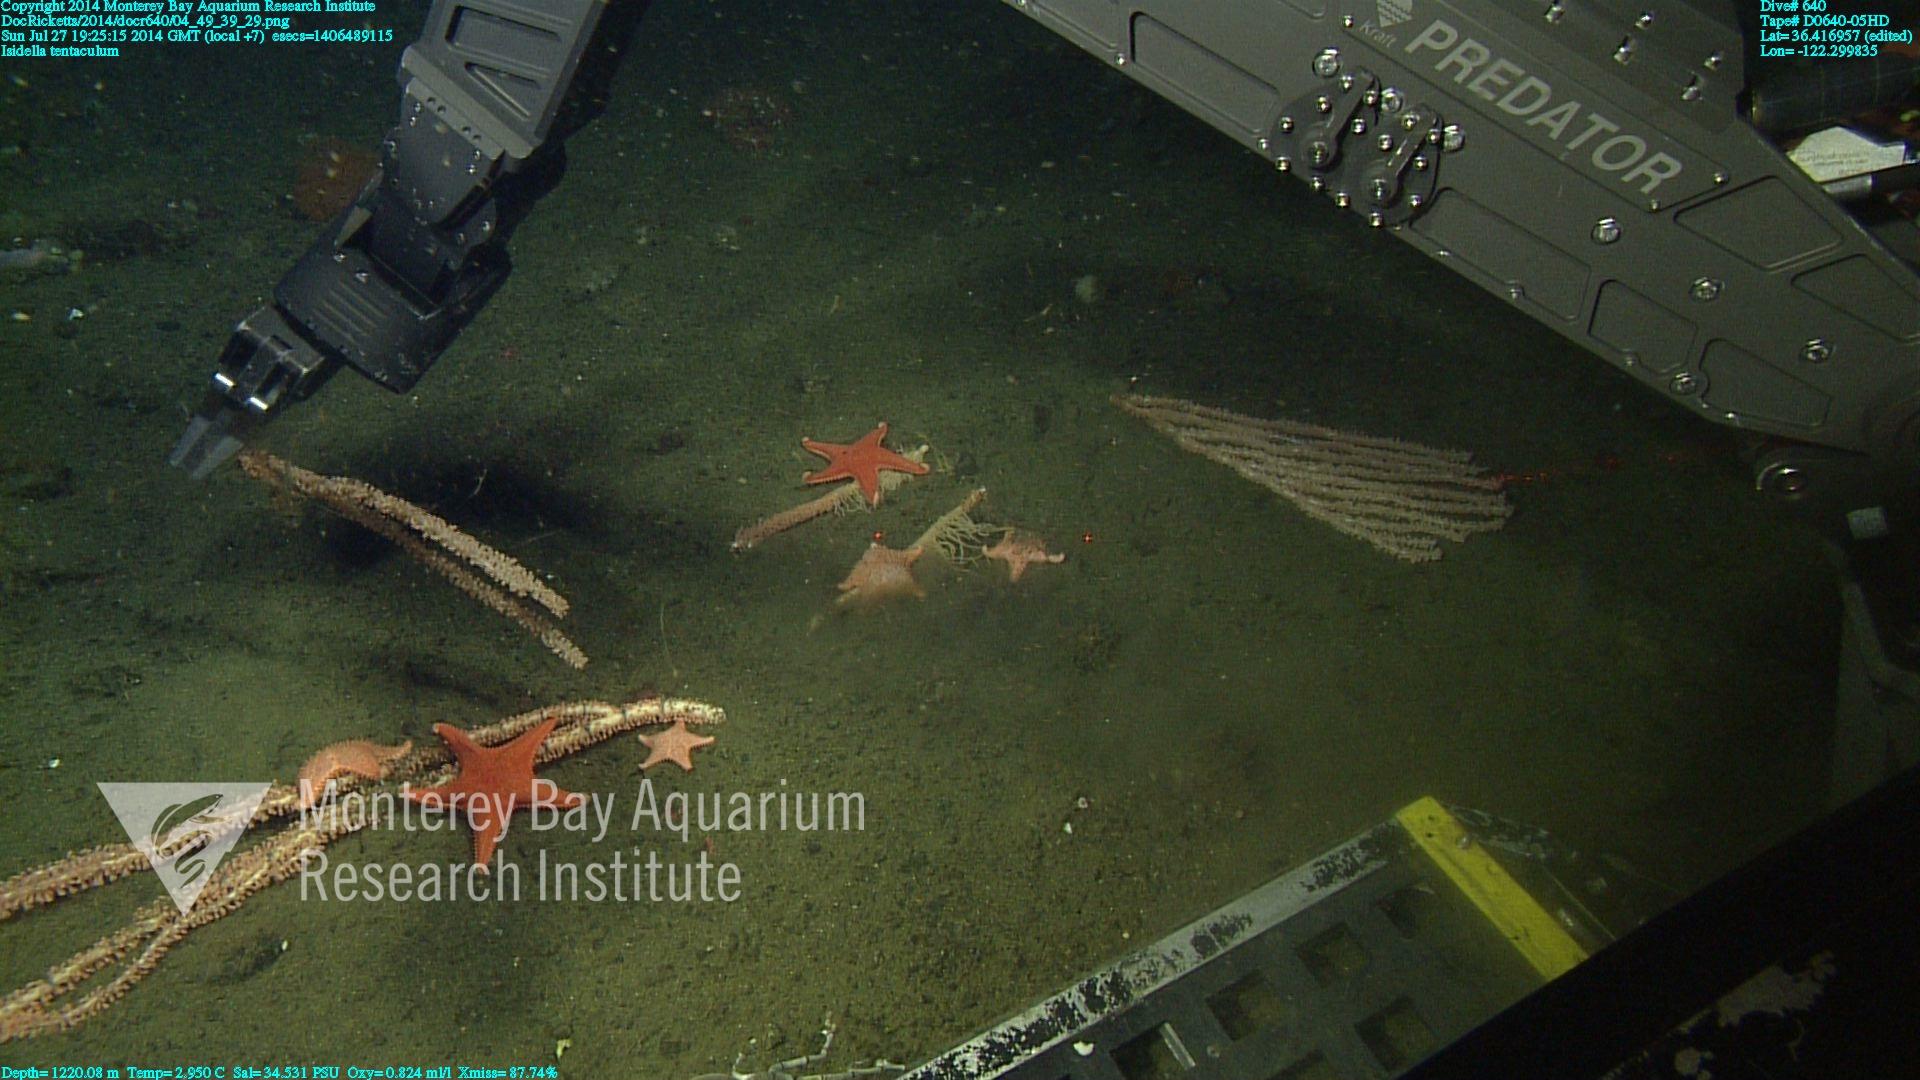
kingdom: Animalia
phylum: Cnidaria
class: Anthozoa
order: Scleralcyonacea
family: Keratoisididae
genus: Isidella
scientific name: Isidella tentaculum
